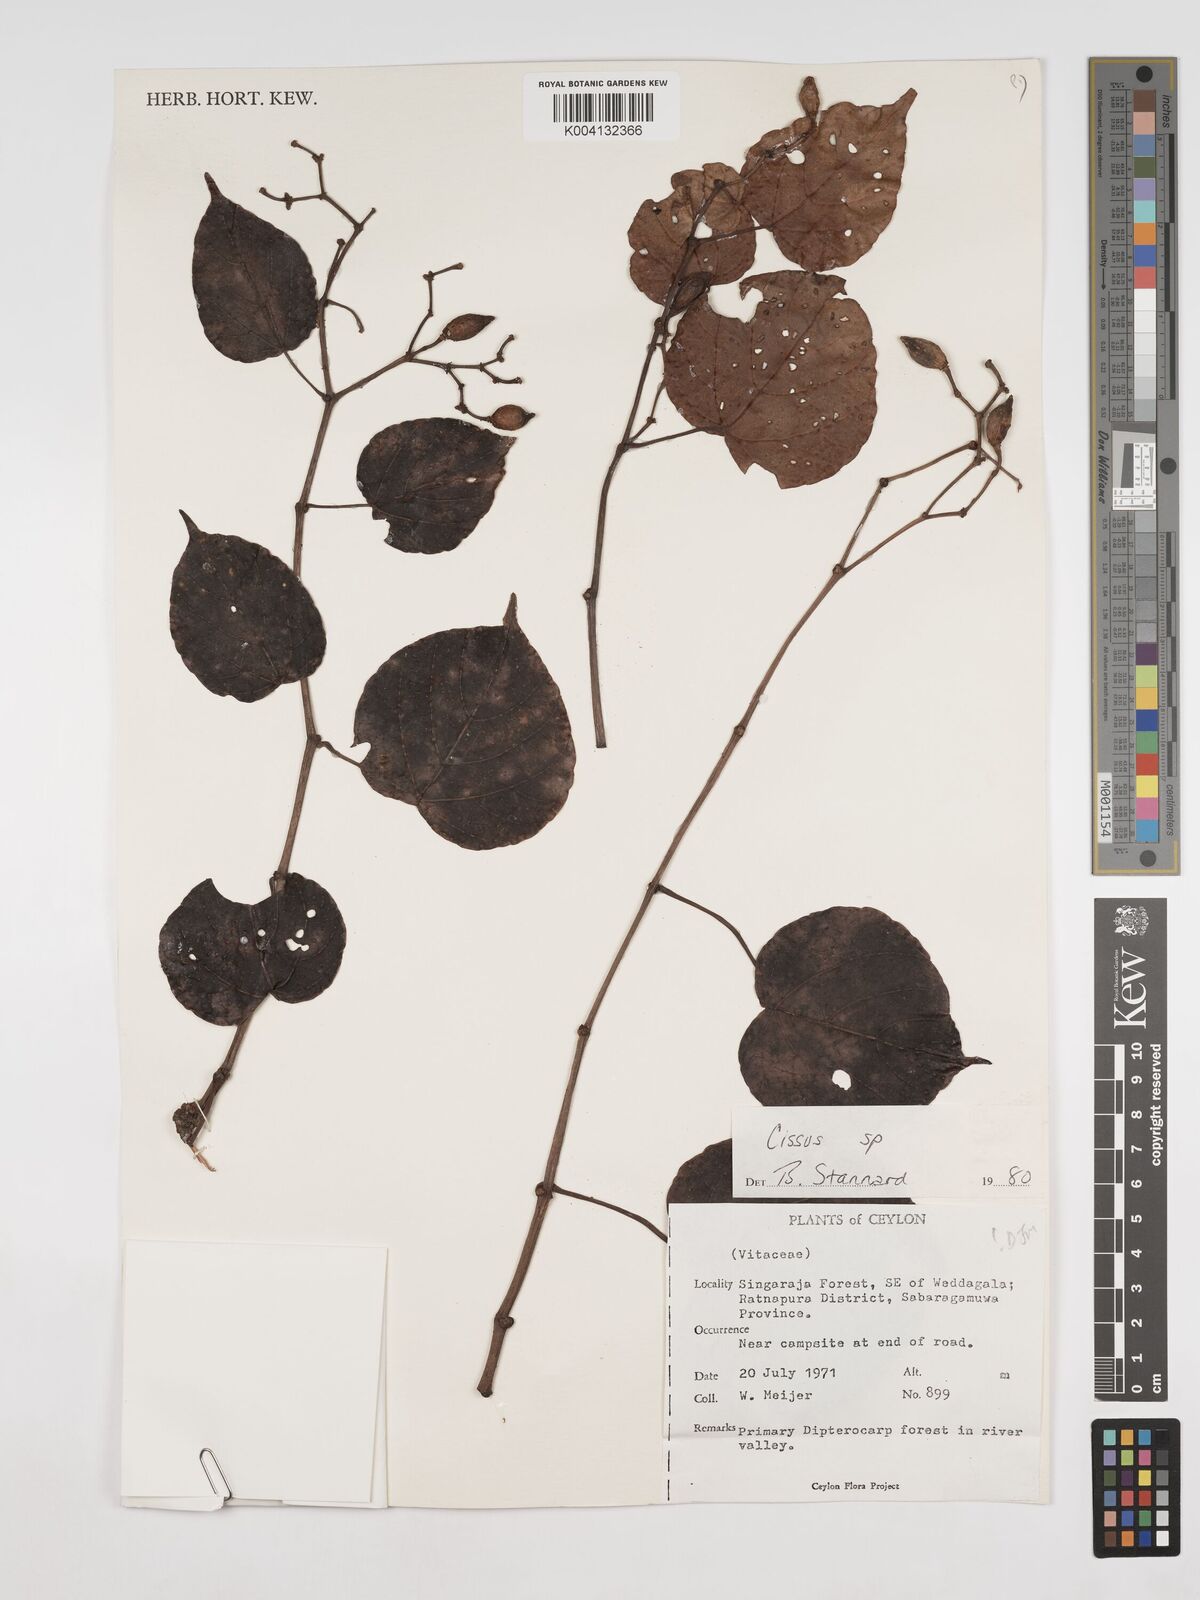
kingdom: Plantae
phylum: Tracheophyta
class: Magnoliopsida
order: Vitales
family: Vitaceae
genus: Cissus
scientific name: Cissus
